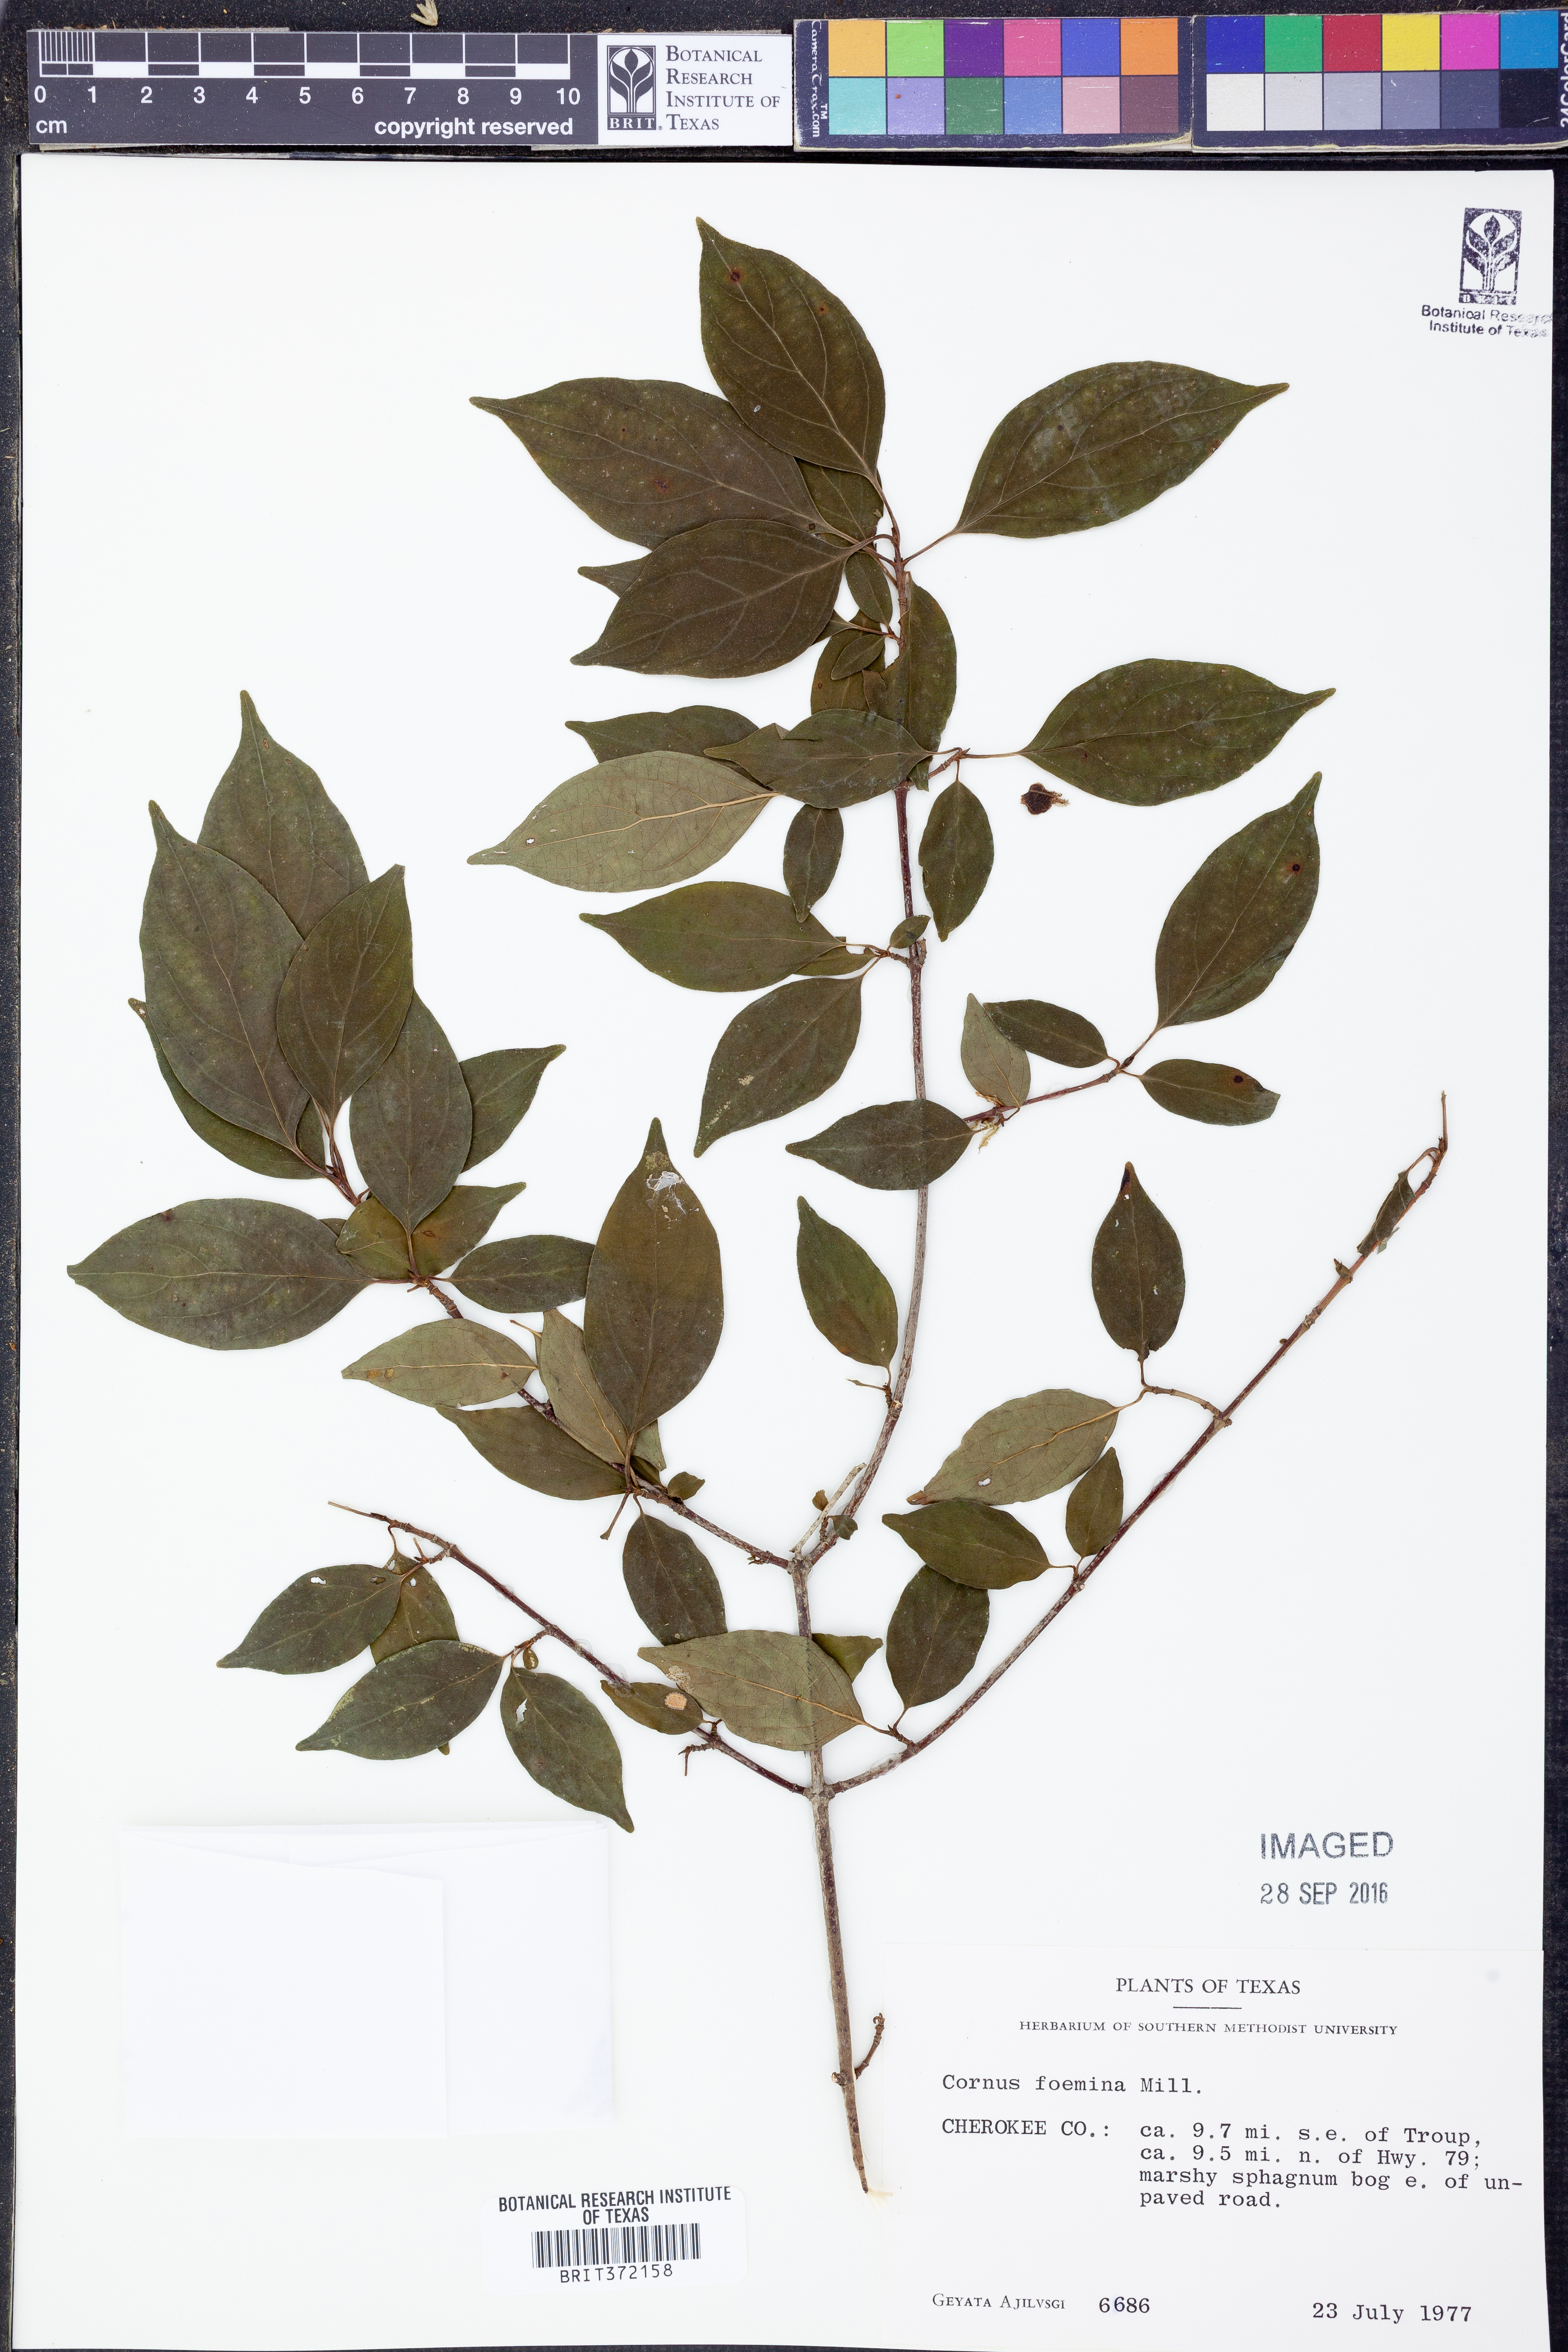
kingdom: Plantae
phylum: Tracheophyta
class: Magnoliopsida
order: Cornales
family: Cornaceae
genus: Cornus
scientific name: Cornus foemina
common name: Swamp dogwood
